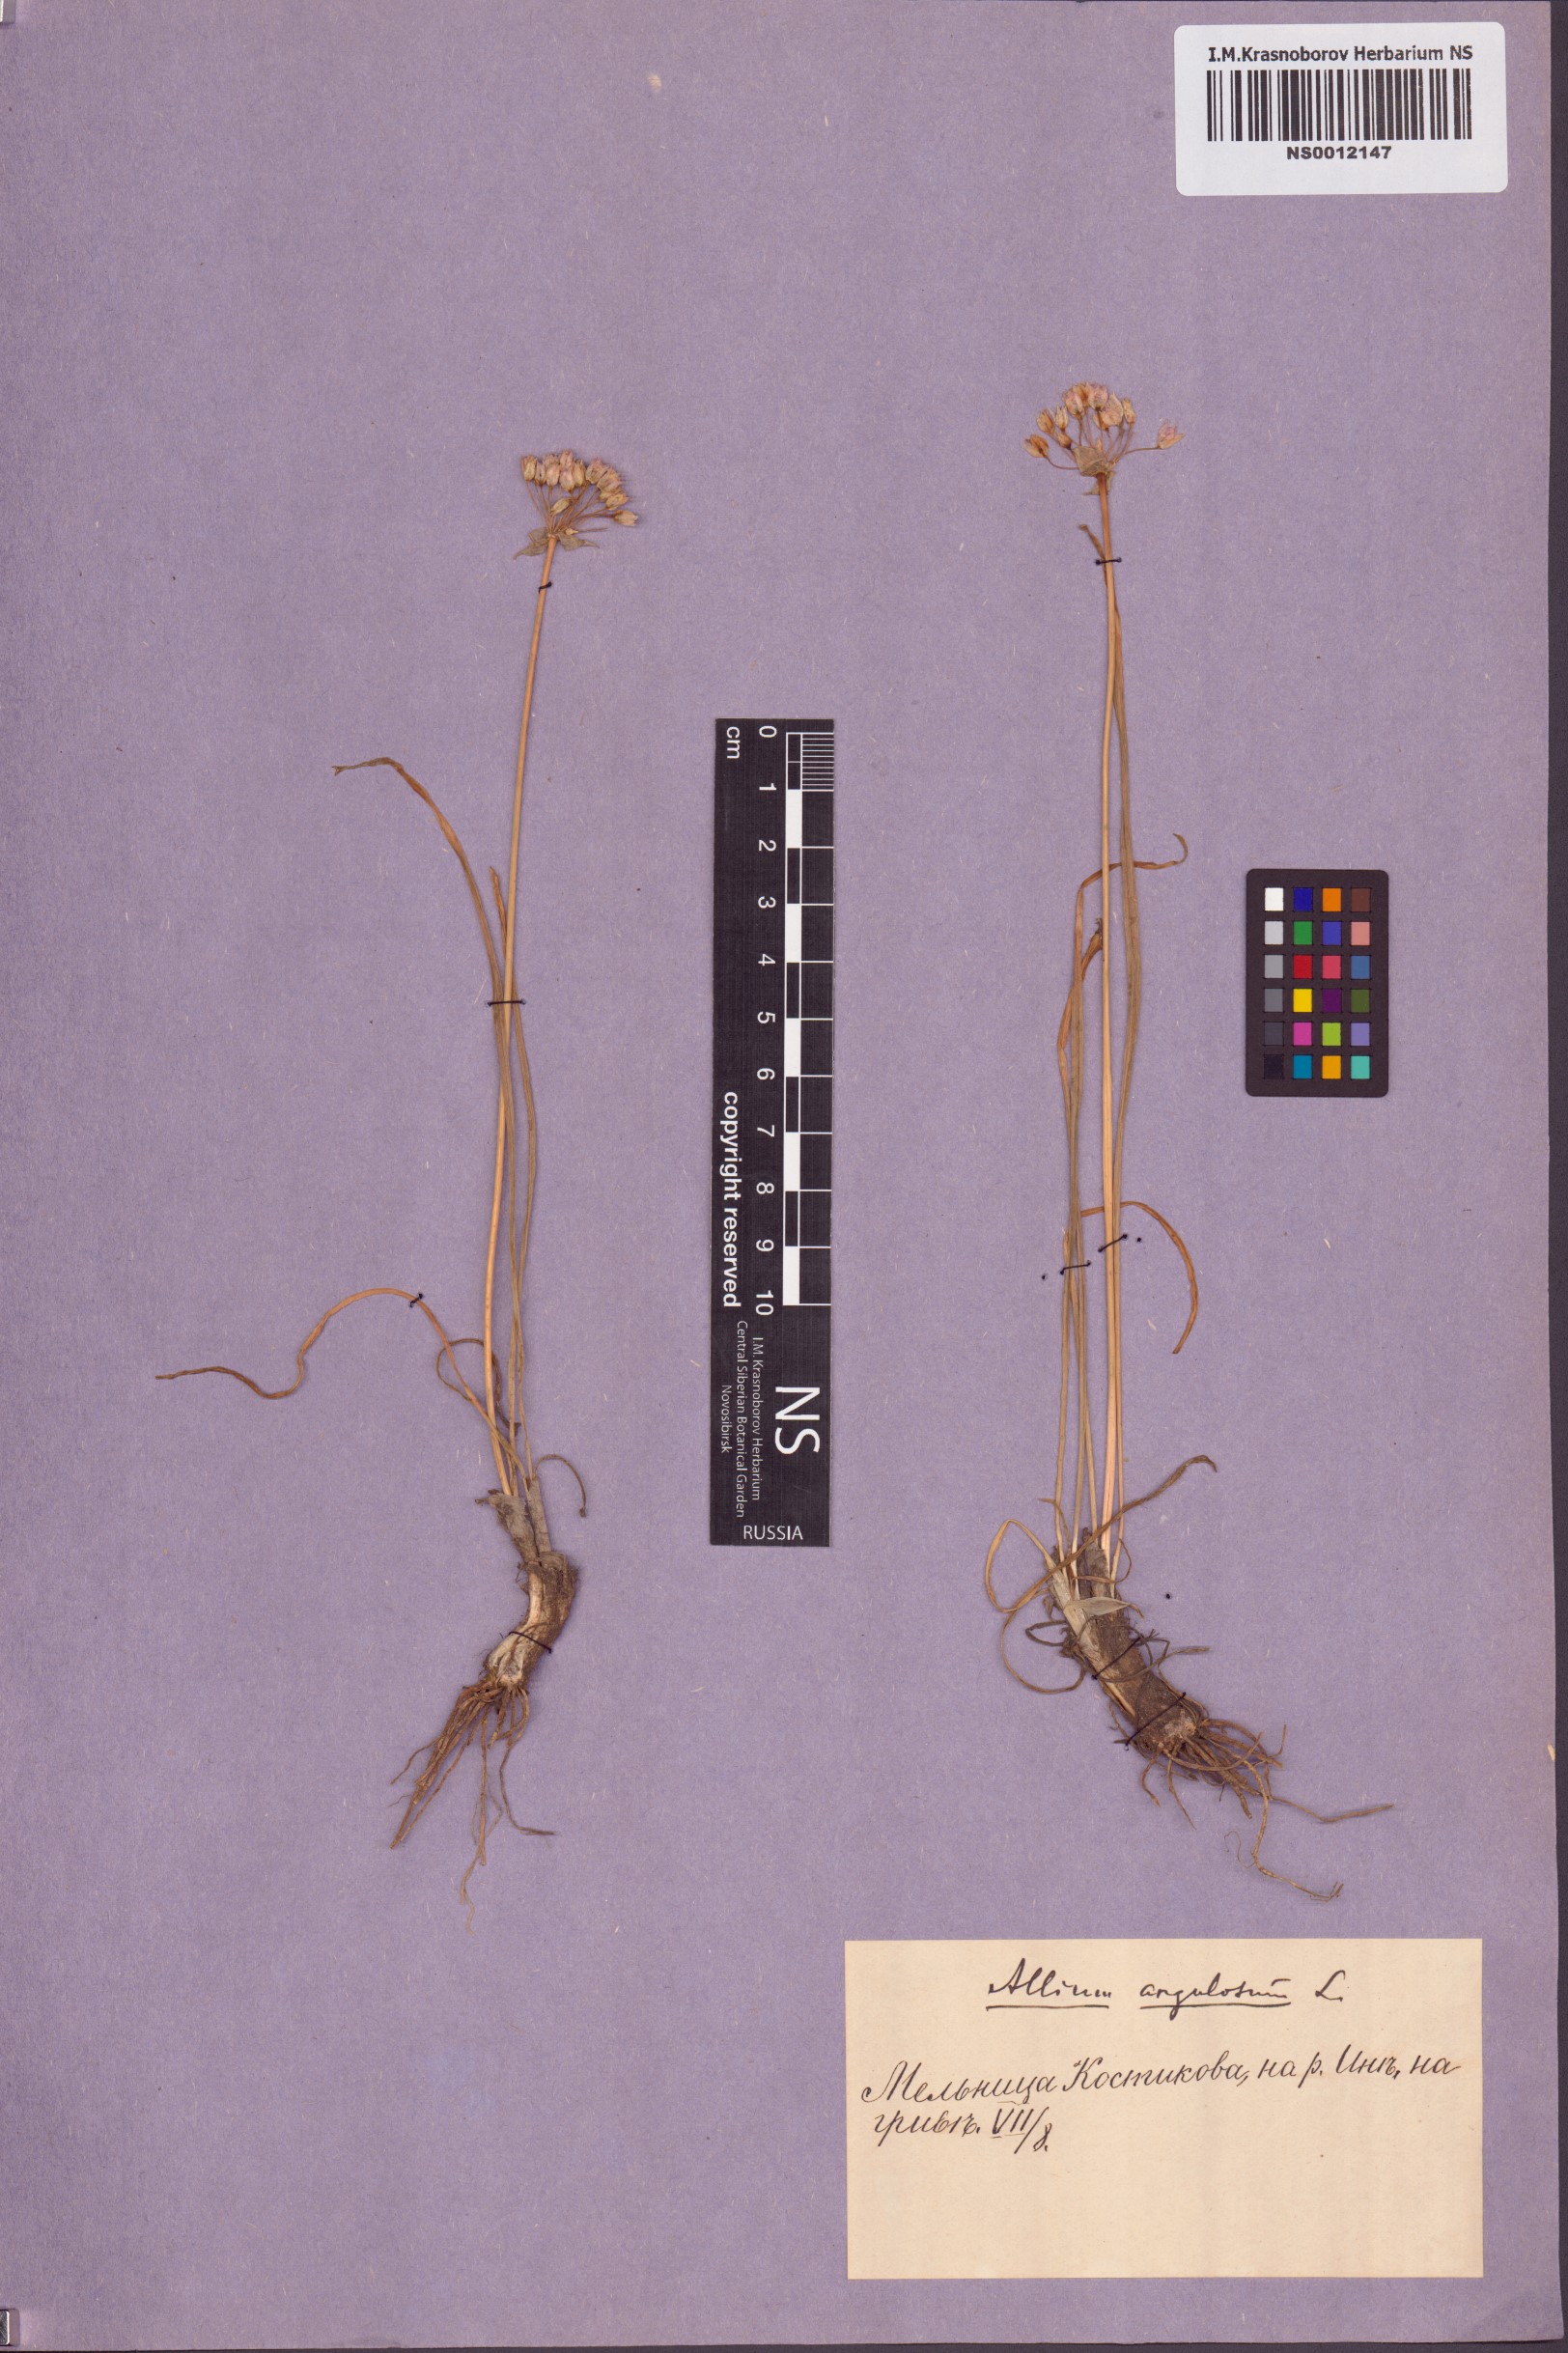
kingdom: Plantae
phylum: Tracheophyta
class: Liliopsida
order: Asparagales
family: Amaryllidaceae
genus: Allium
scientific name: Allium angulosum
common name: Mouse garlic
